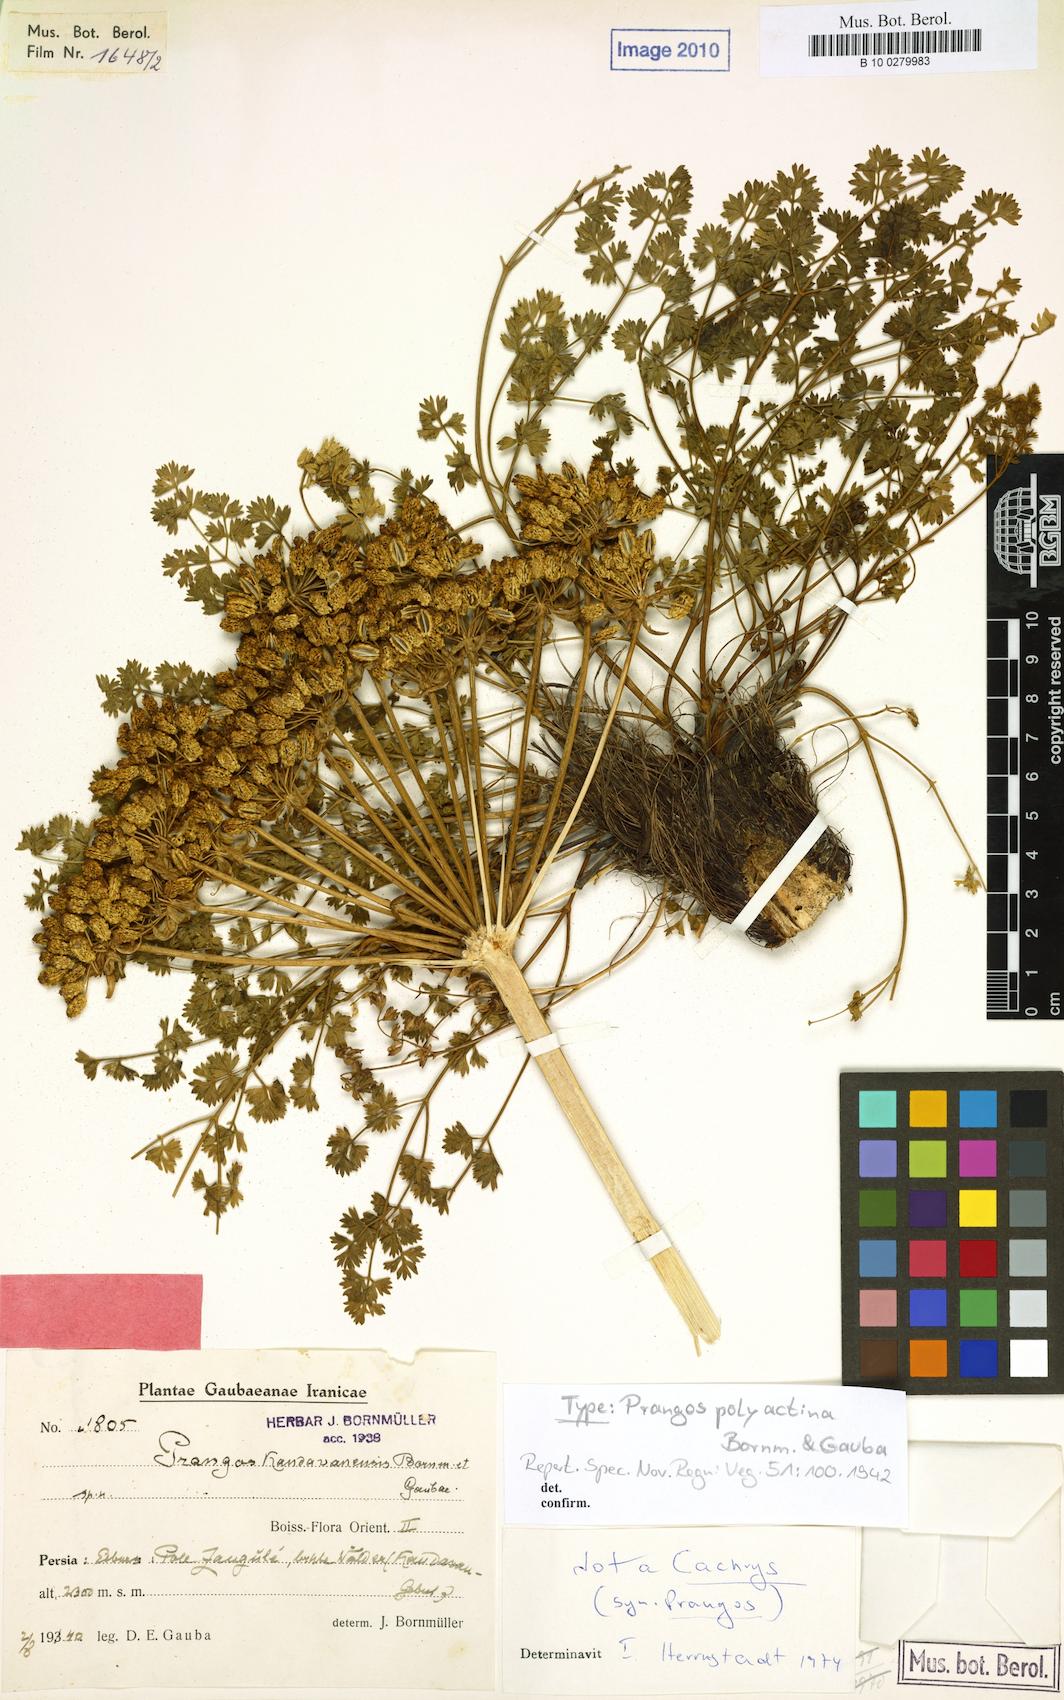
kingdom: Plantae
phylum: Tracheophyta
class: Magnoliopsida
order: Apiales
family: Apiaceae
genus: Laser
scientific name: Laser involucratum
